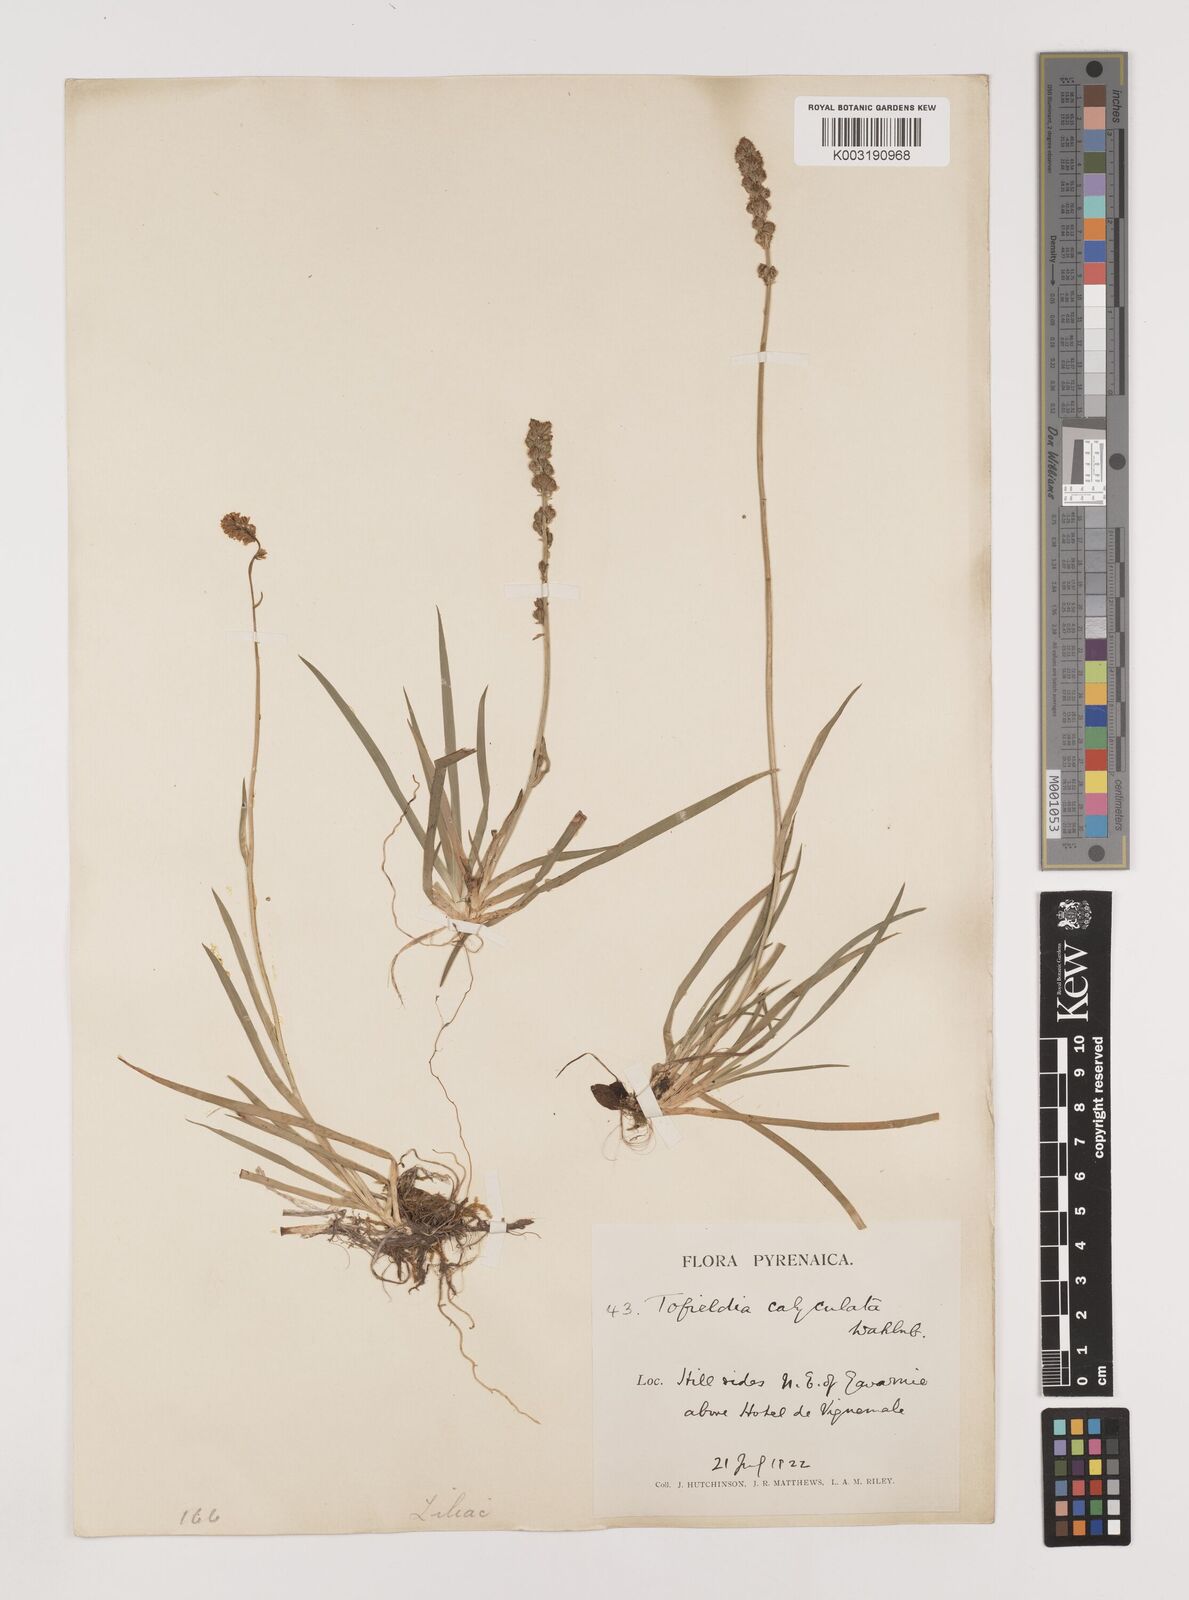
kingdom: Plantae
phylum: Tracheophyta
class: Liliopsida
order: Alismatales
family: Tofieldiaceae
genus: Tofieldia
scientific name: Tofieldia calyculata
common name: German-asphodel
